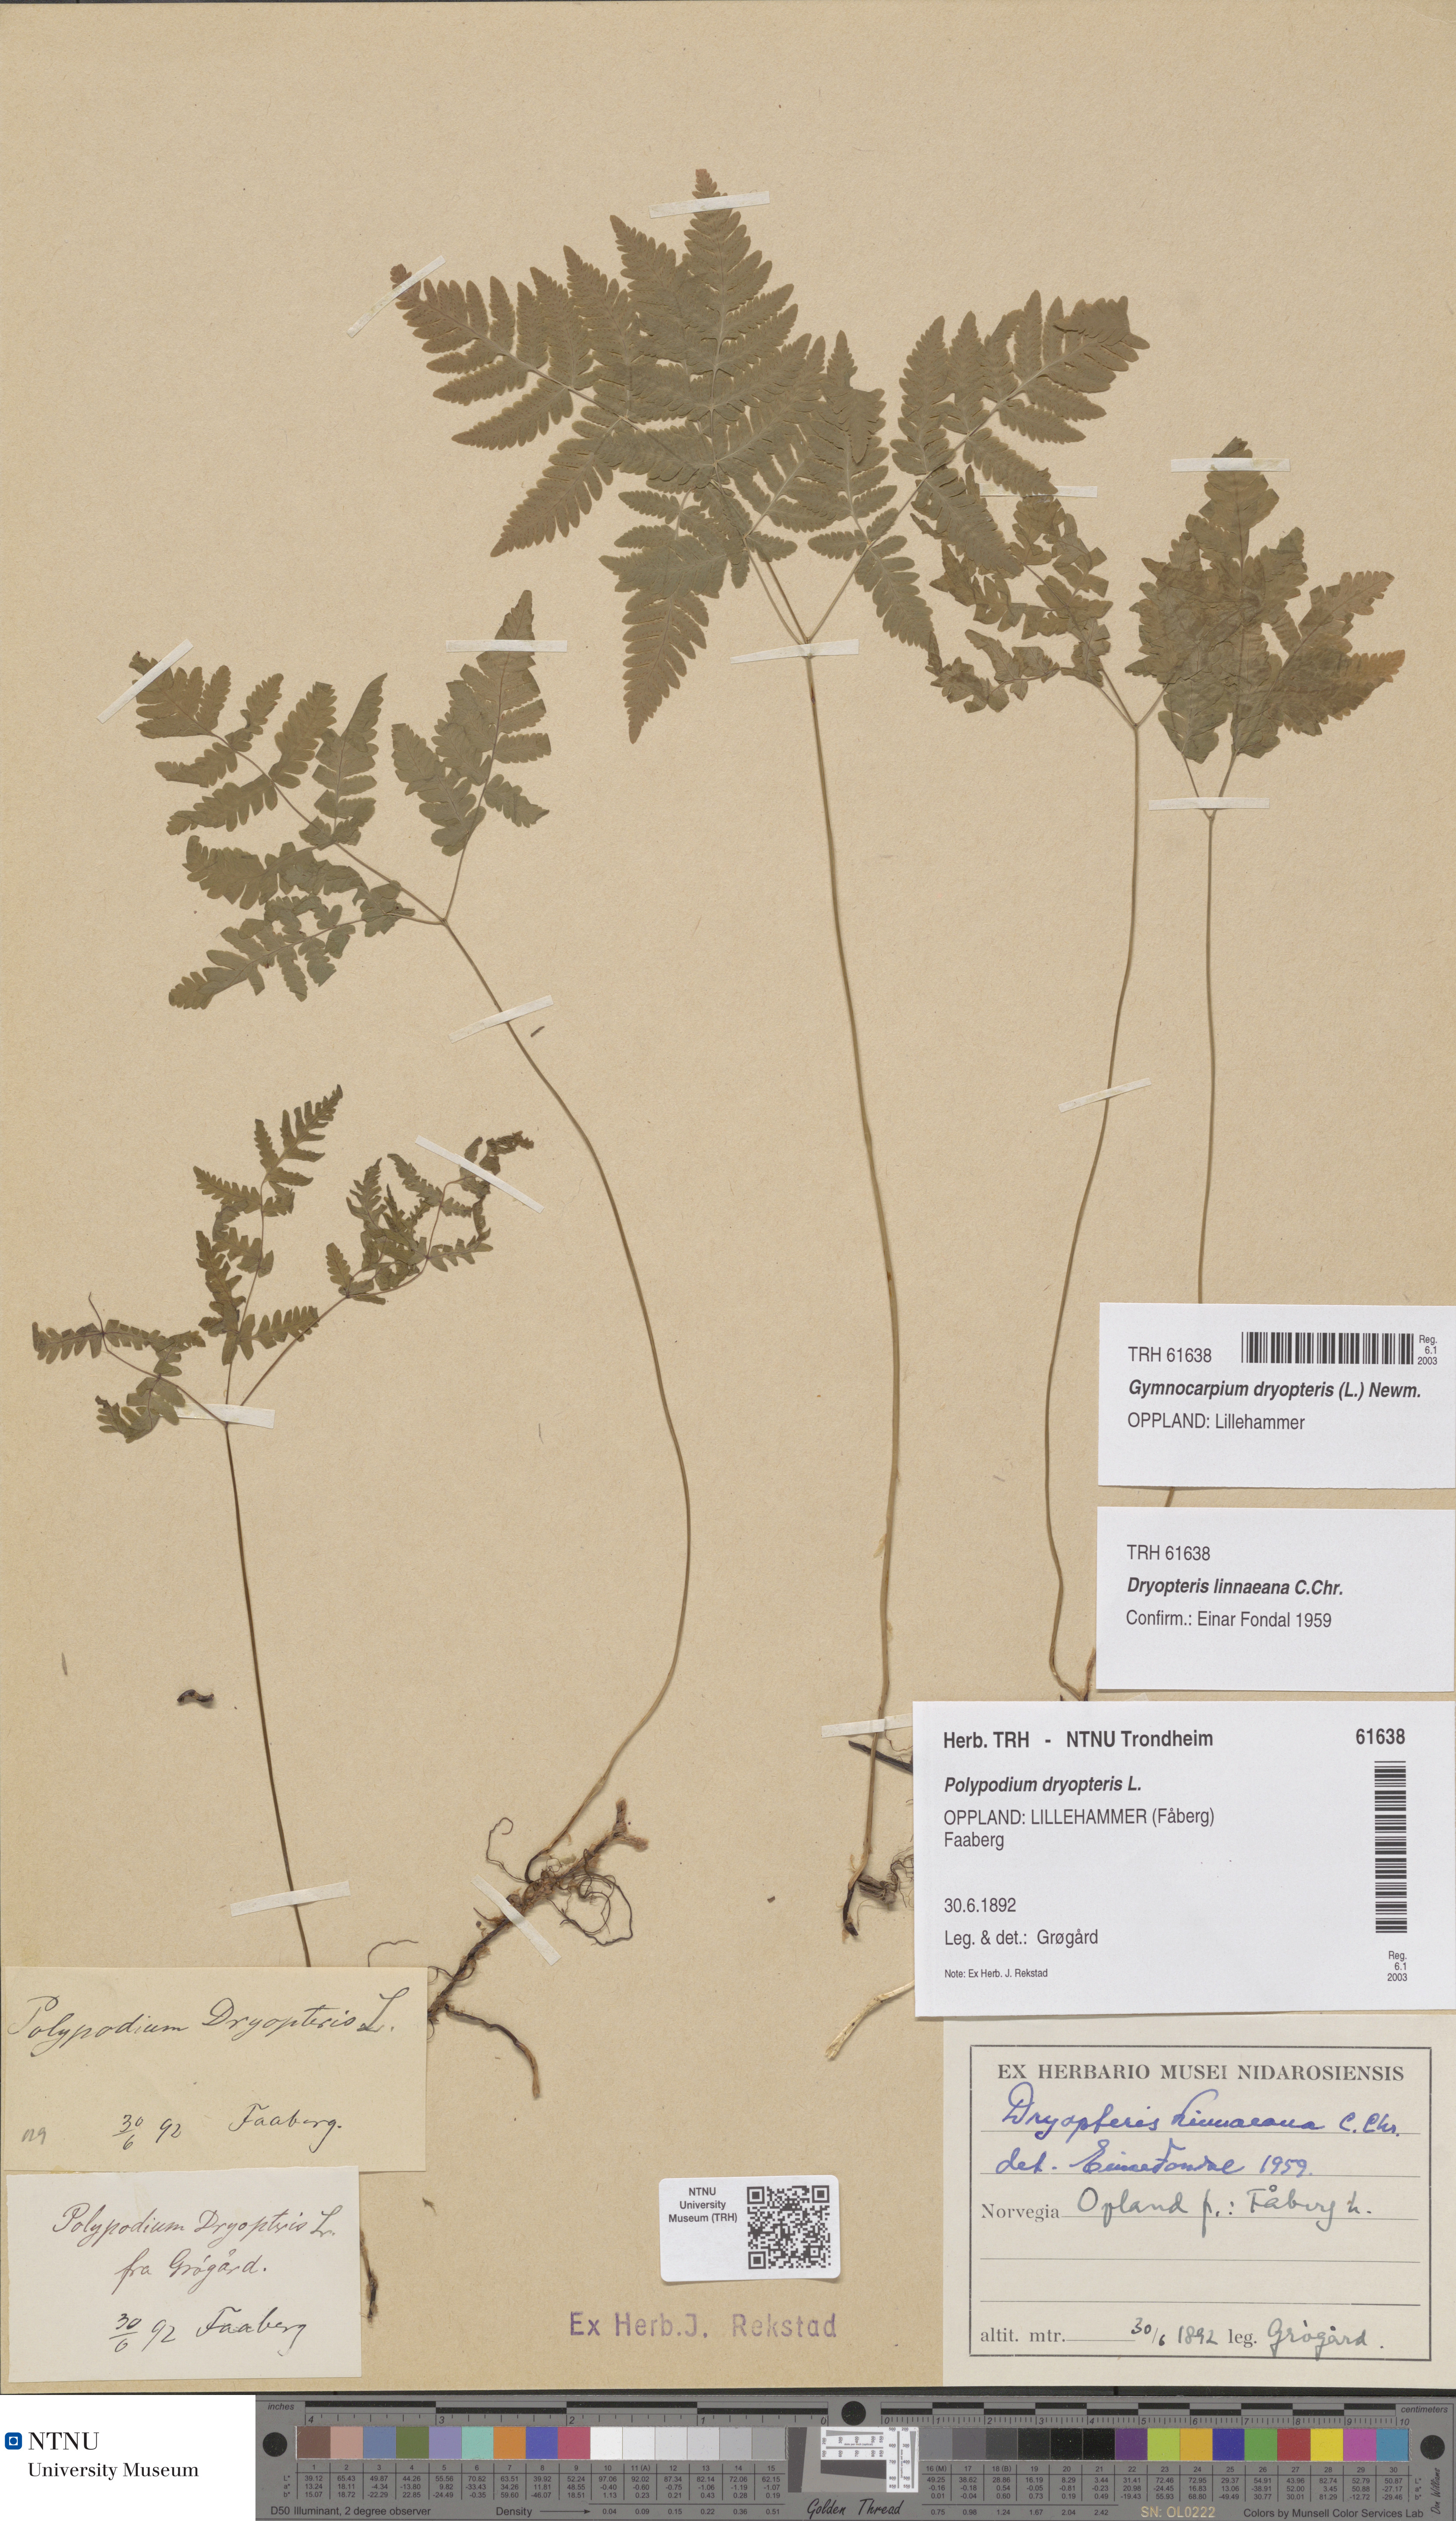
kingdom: Plantae
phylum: Tracheophyta
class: Polypodiopsida
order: Polypodiales
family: Cystopteridaceae
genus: Gymnocarpium
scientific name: Gymnocarpium dryopteris
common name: Oak fern
